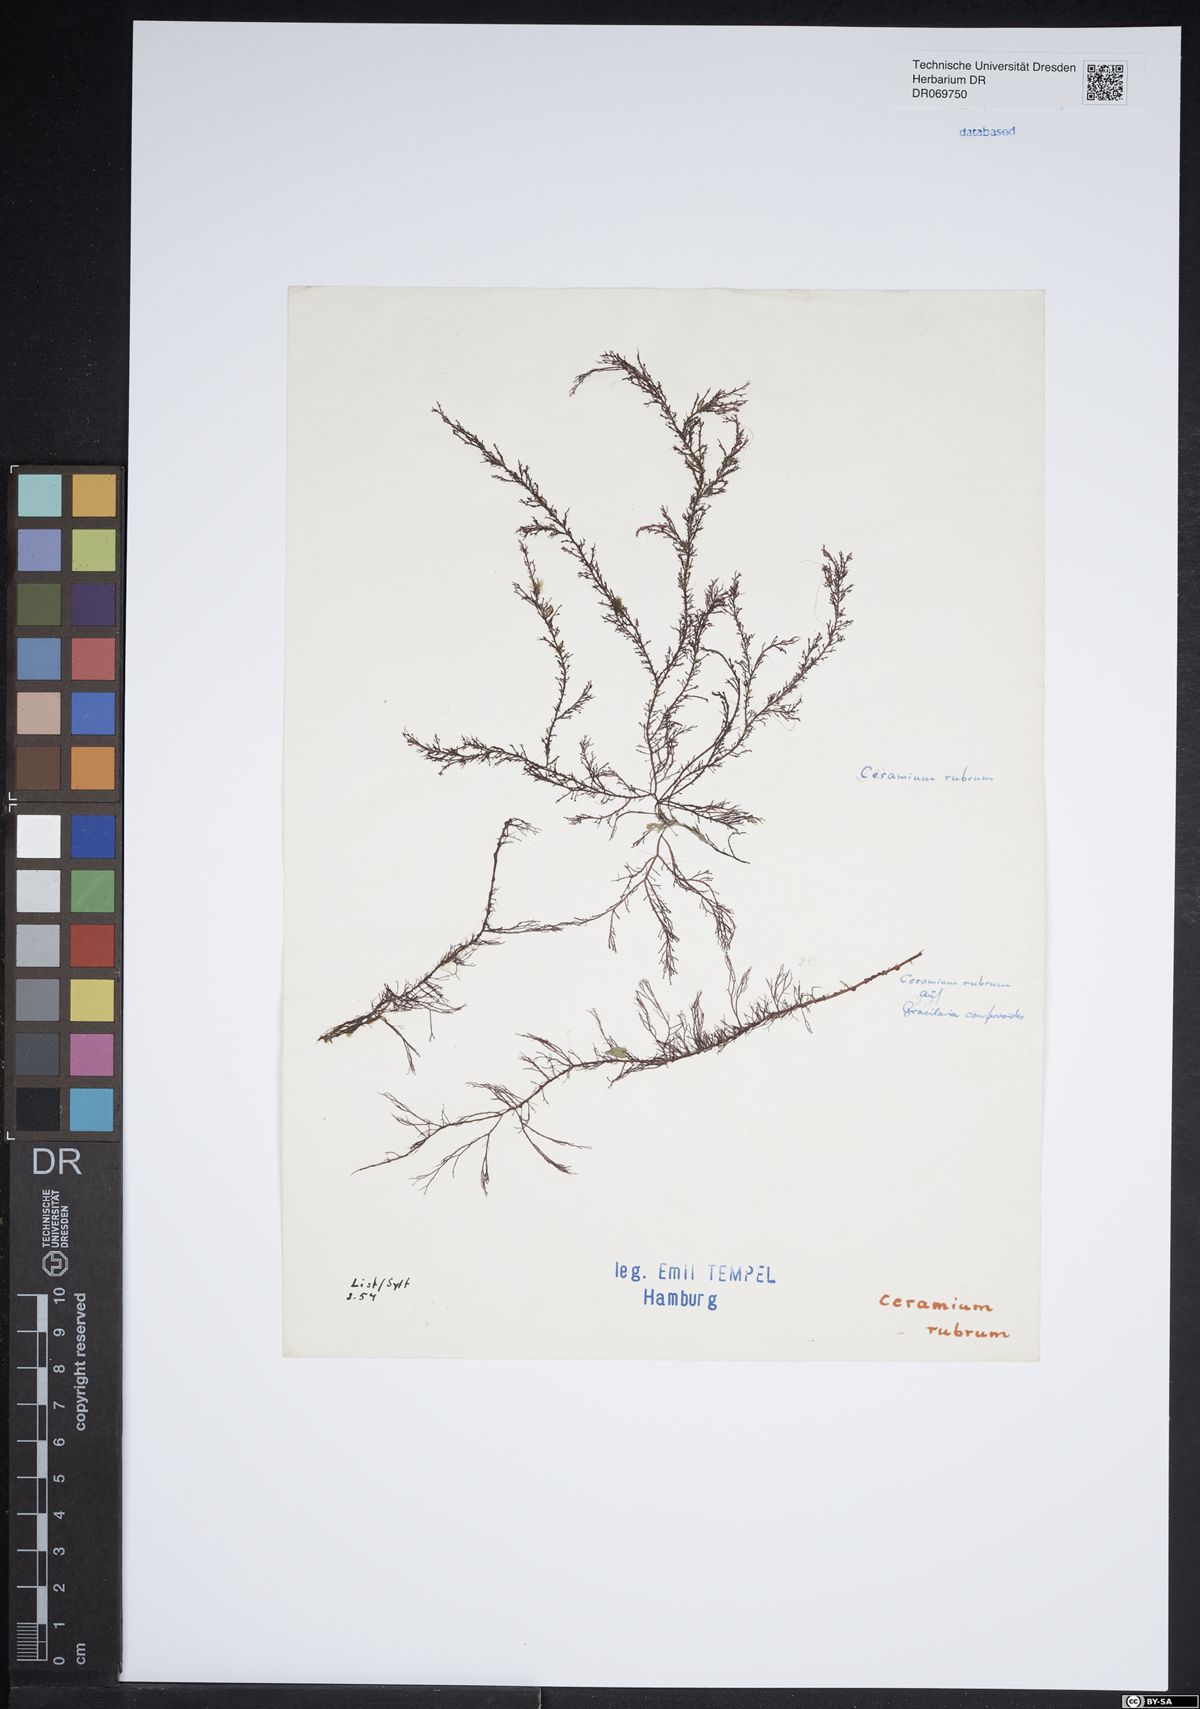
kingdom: Plantae
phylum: Rhodophyta
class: Florideophyceae
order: Ceramiales
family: Ceramiaceae
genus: Ceramium
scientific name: Ceramium virgatum
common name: Red hornweed
